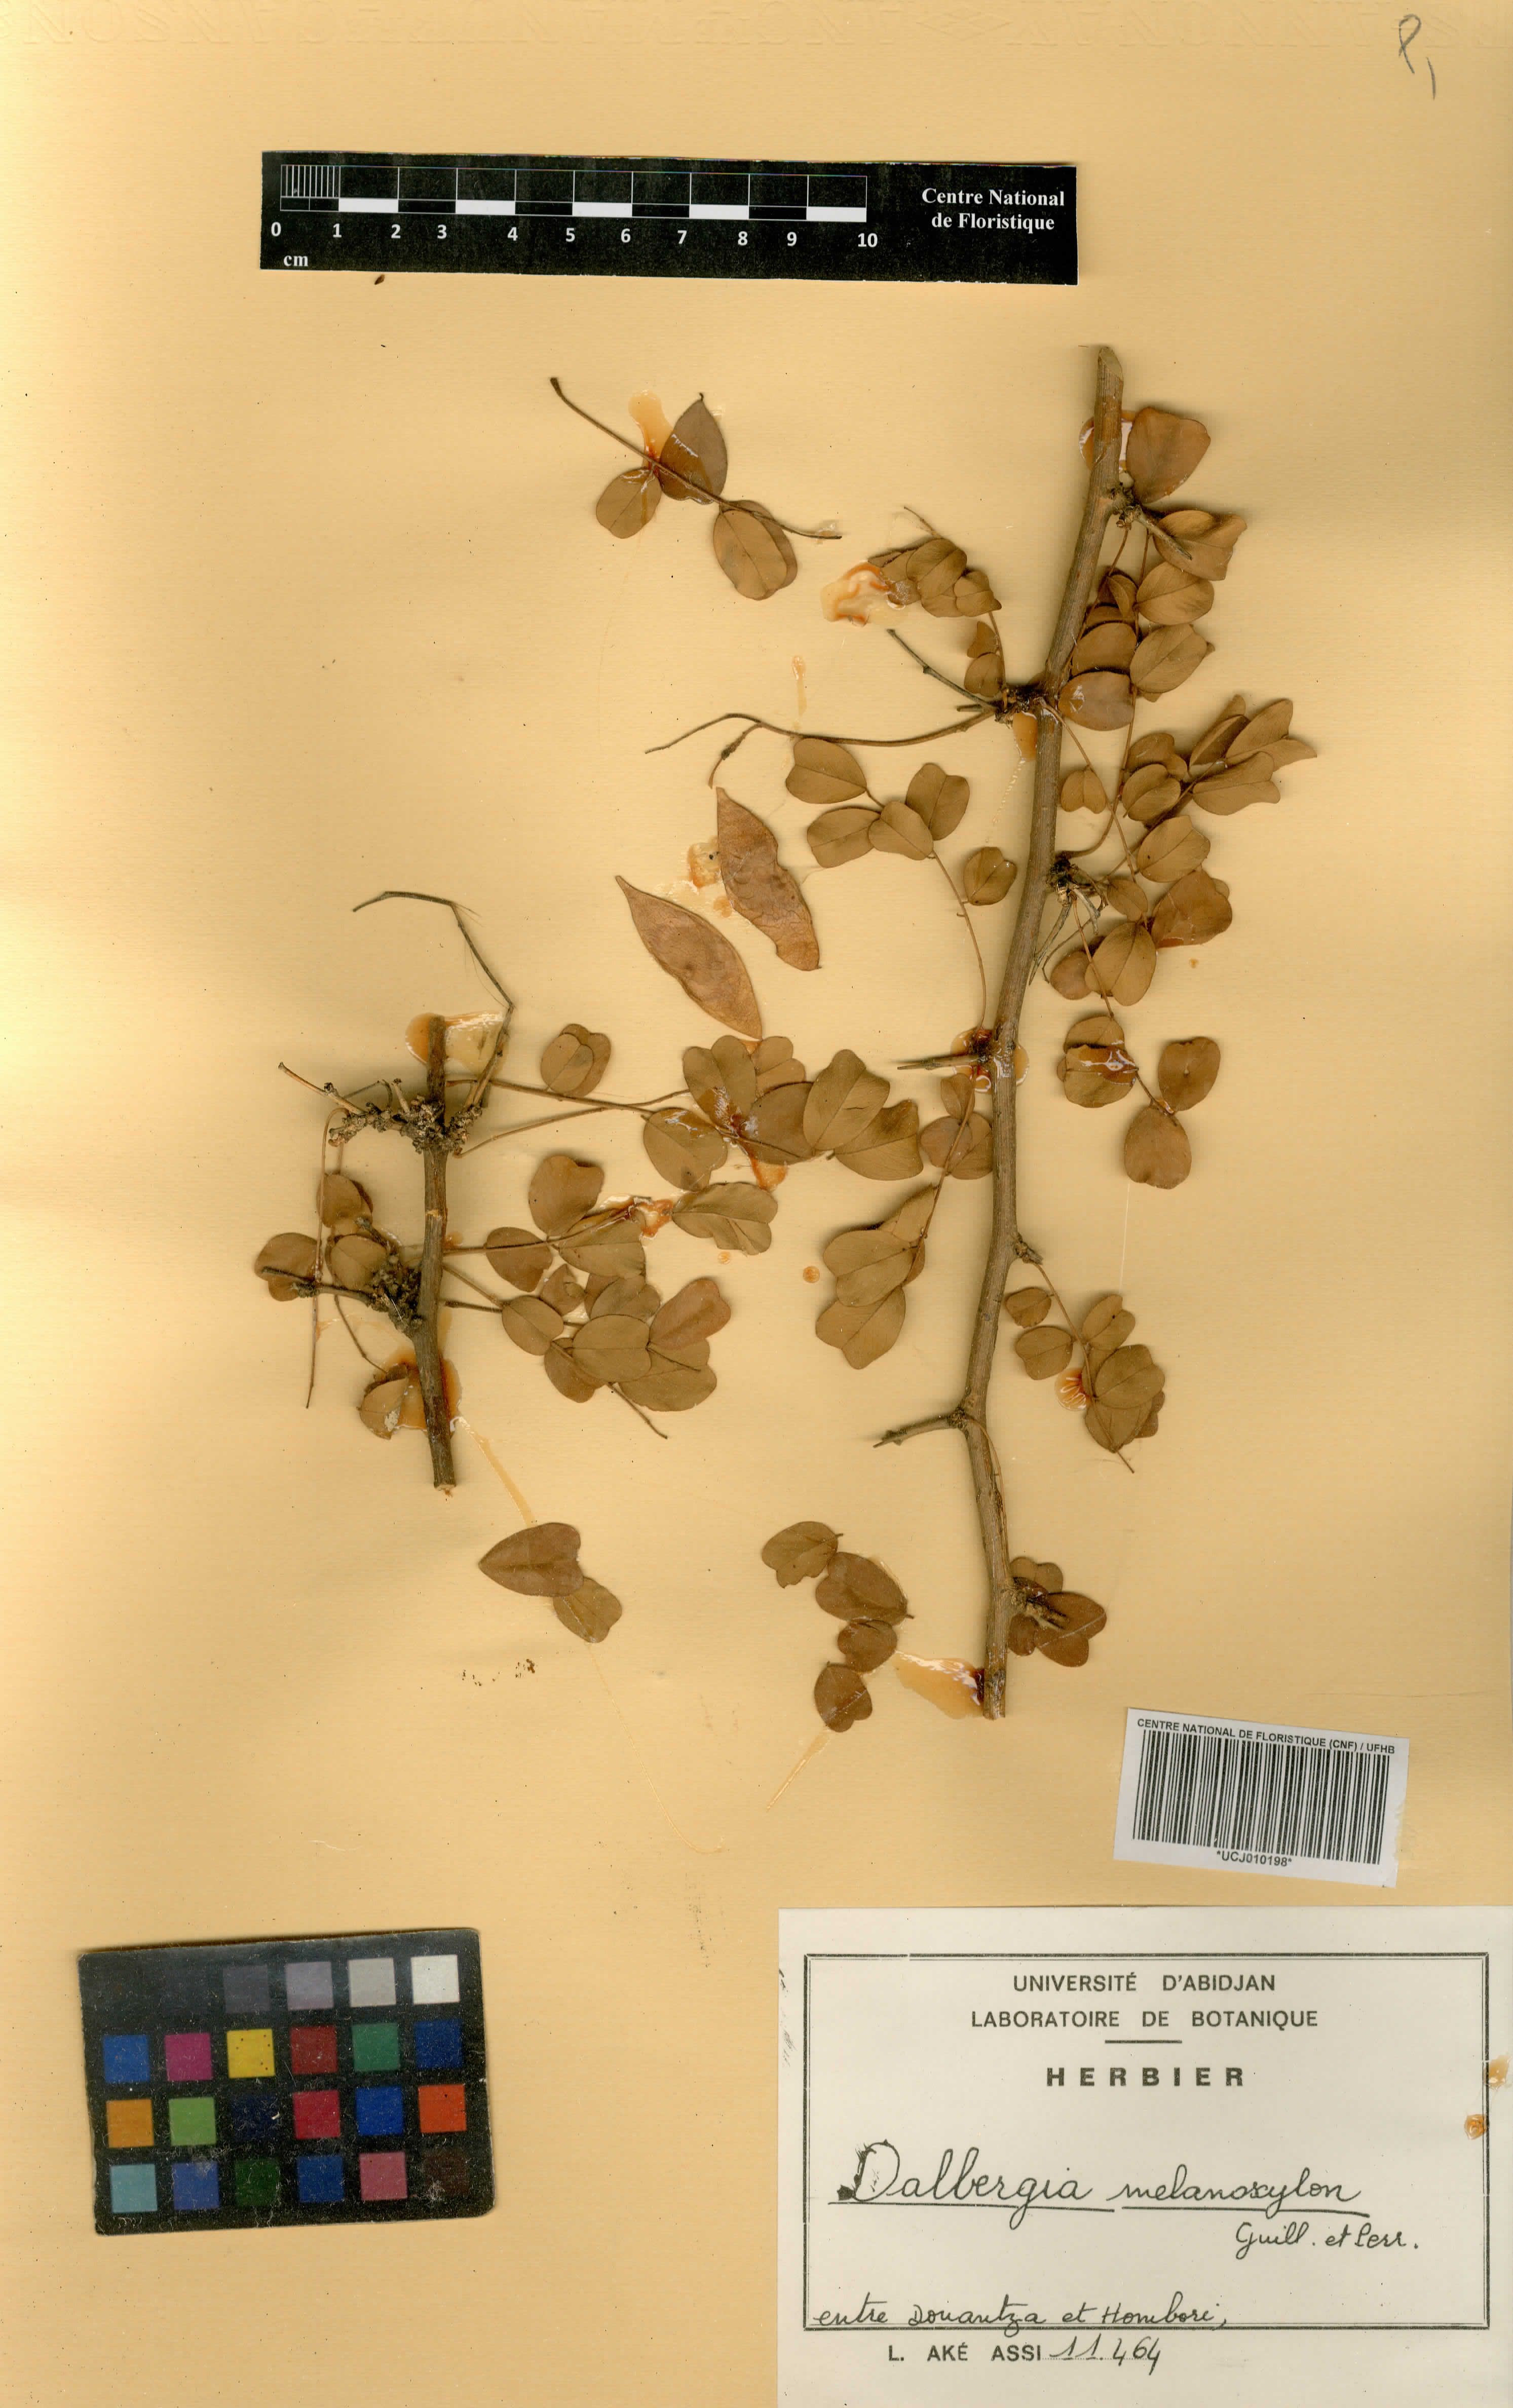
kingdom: Plantae
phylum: Tracheophyta
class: Magnoliopsida
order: Fabales
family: Fabaceae
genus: Dalbergia
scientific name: Dalbergia melanoxylon
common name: African blackwood
